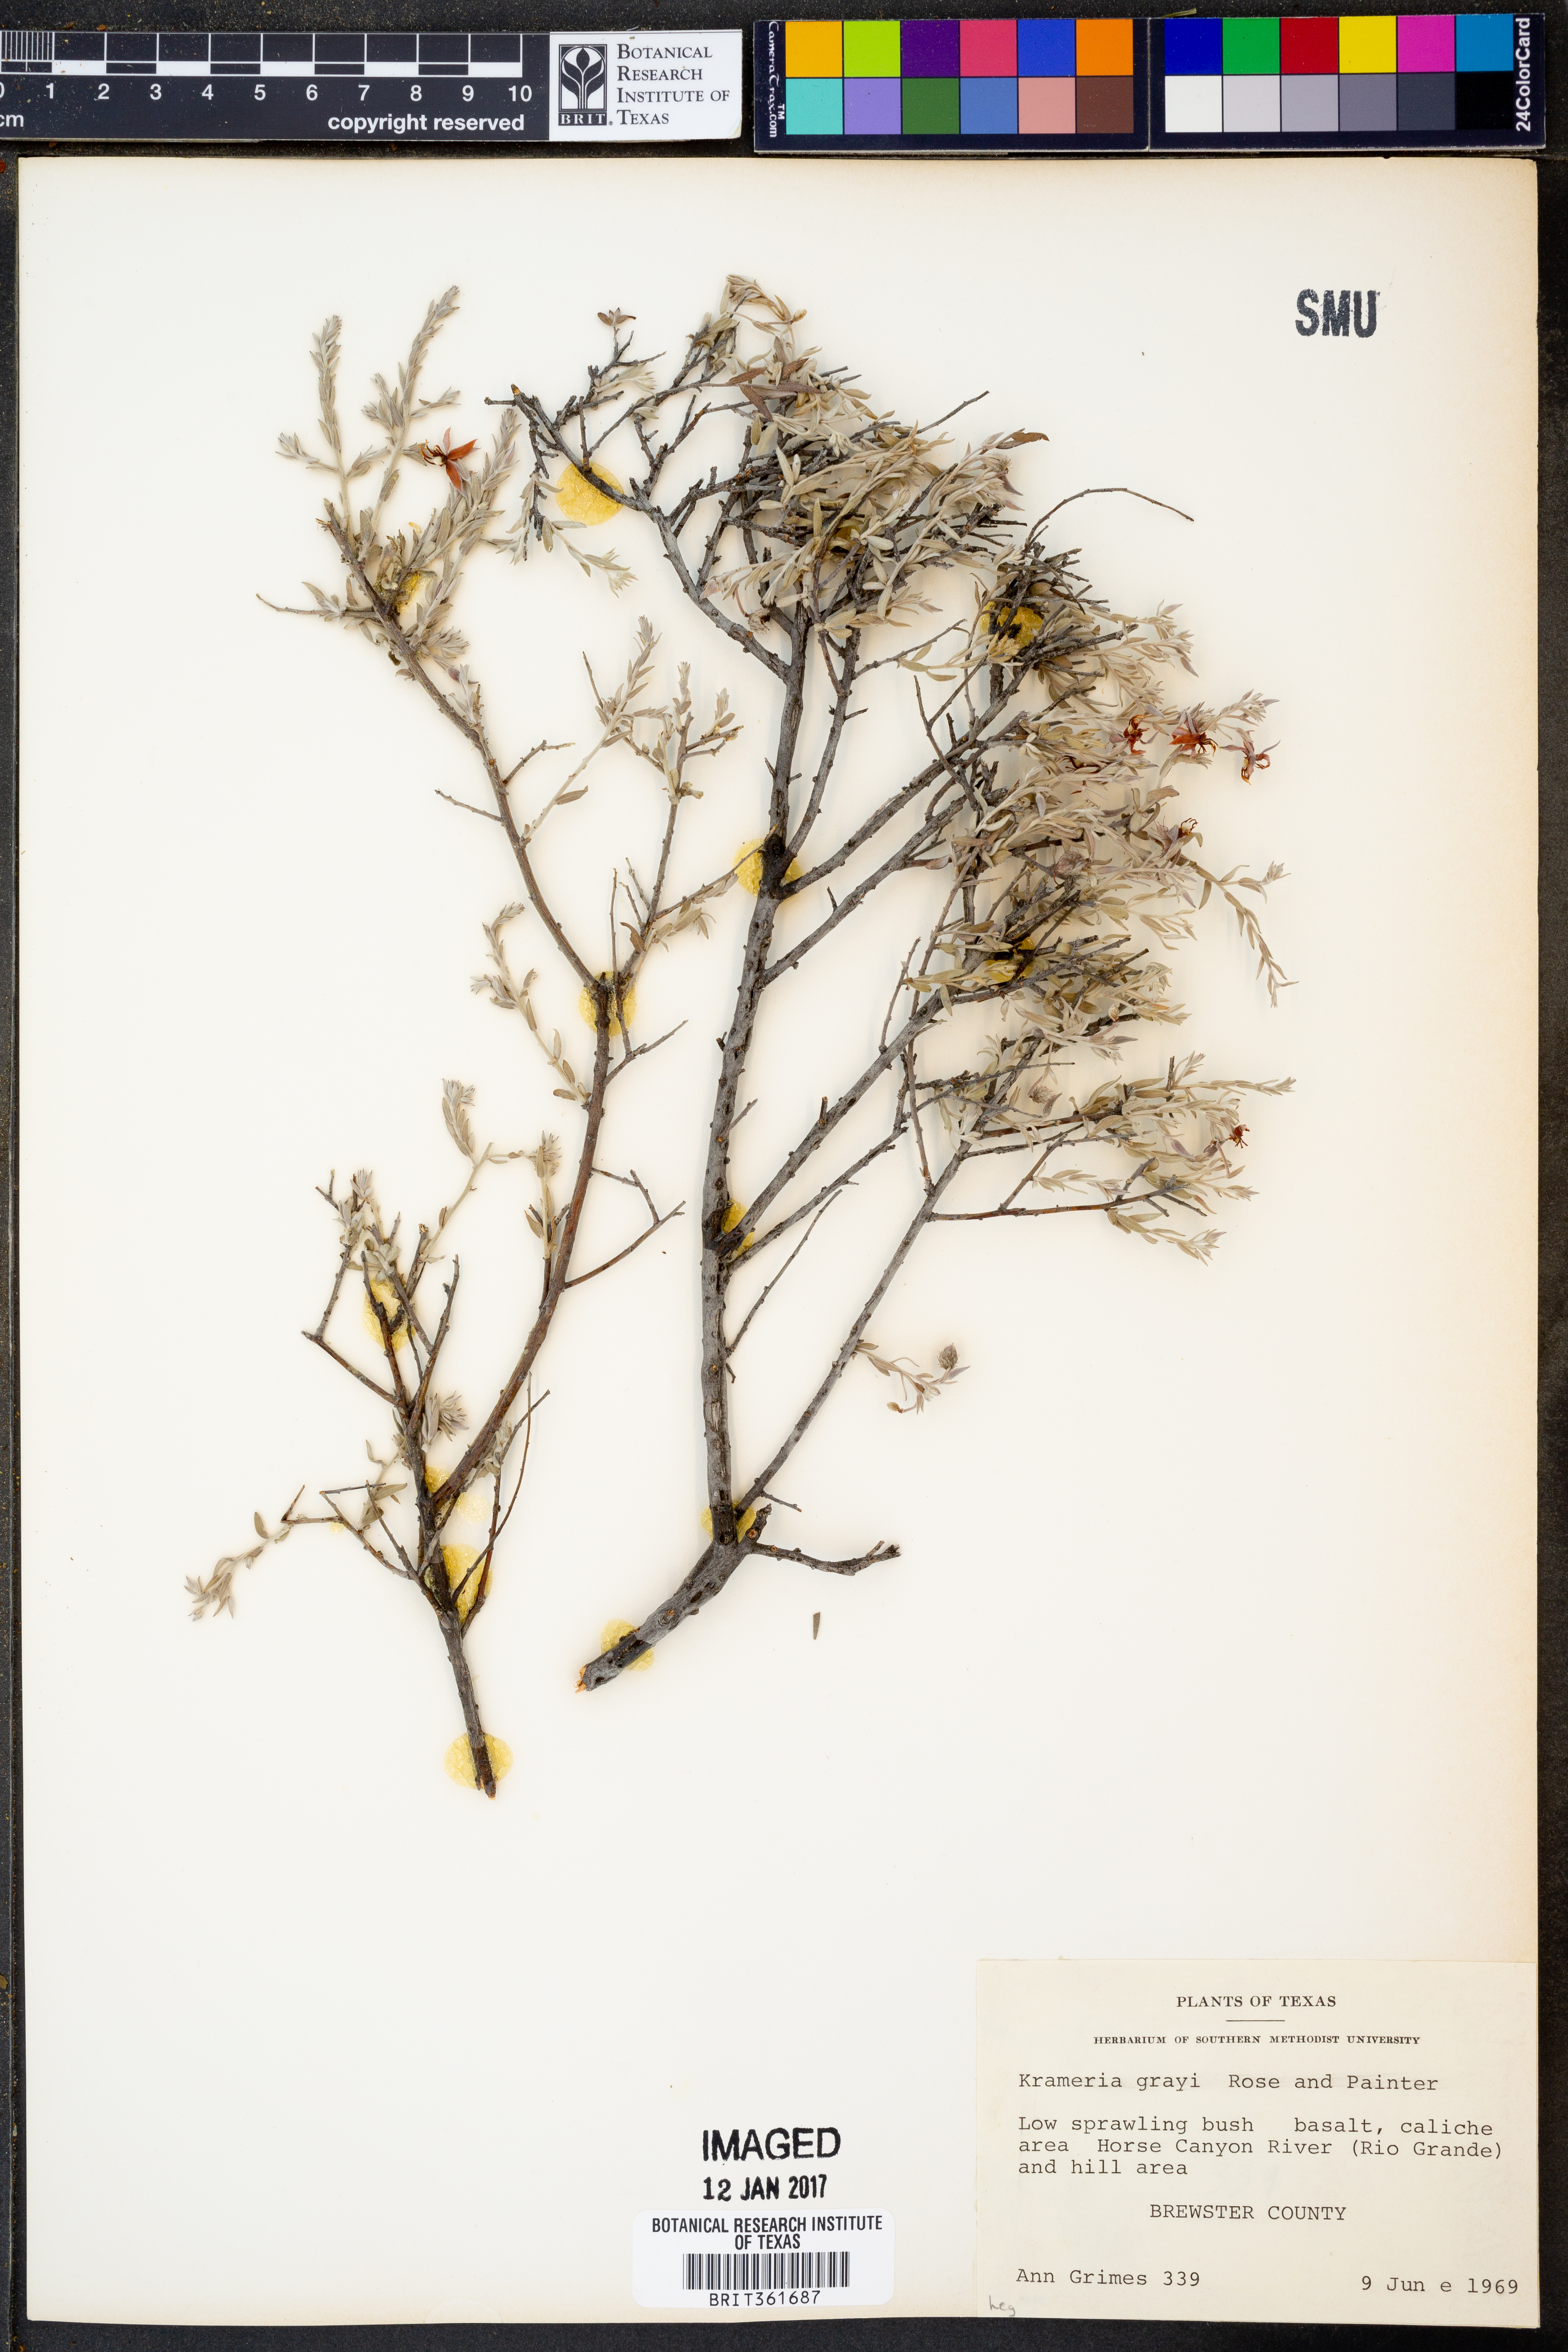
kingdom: Plantae
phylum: Tracheophyta
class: Magnoliopsida
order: Zygophyllales
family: Krameriaceae
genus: Krameria
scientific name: Krameria bicolor
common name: White ratany
